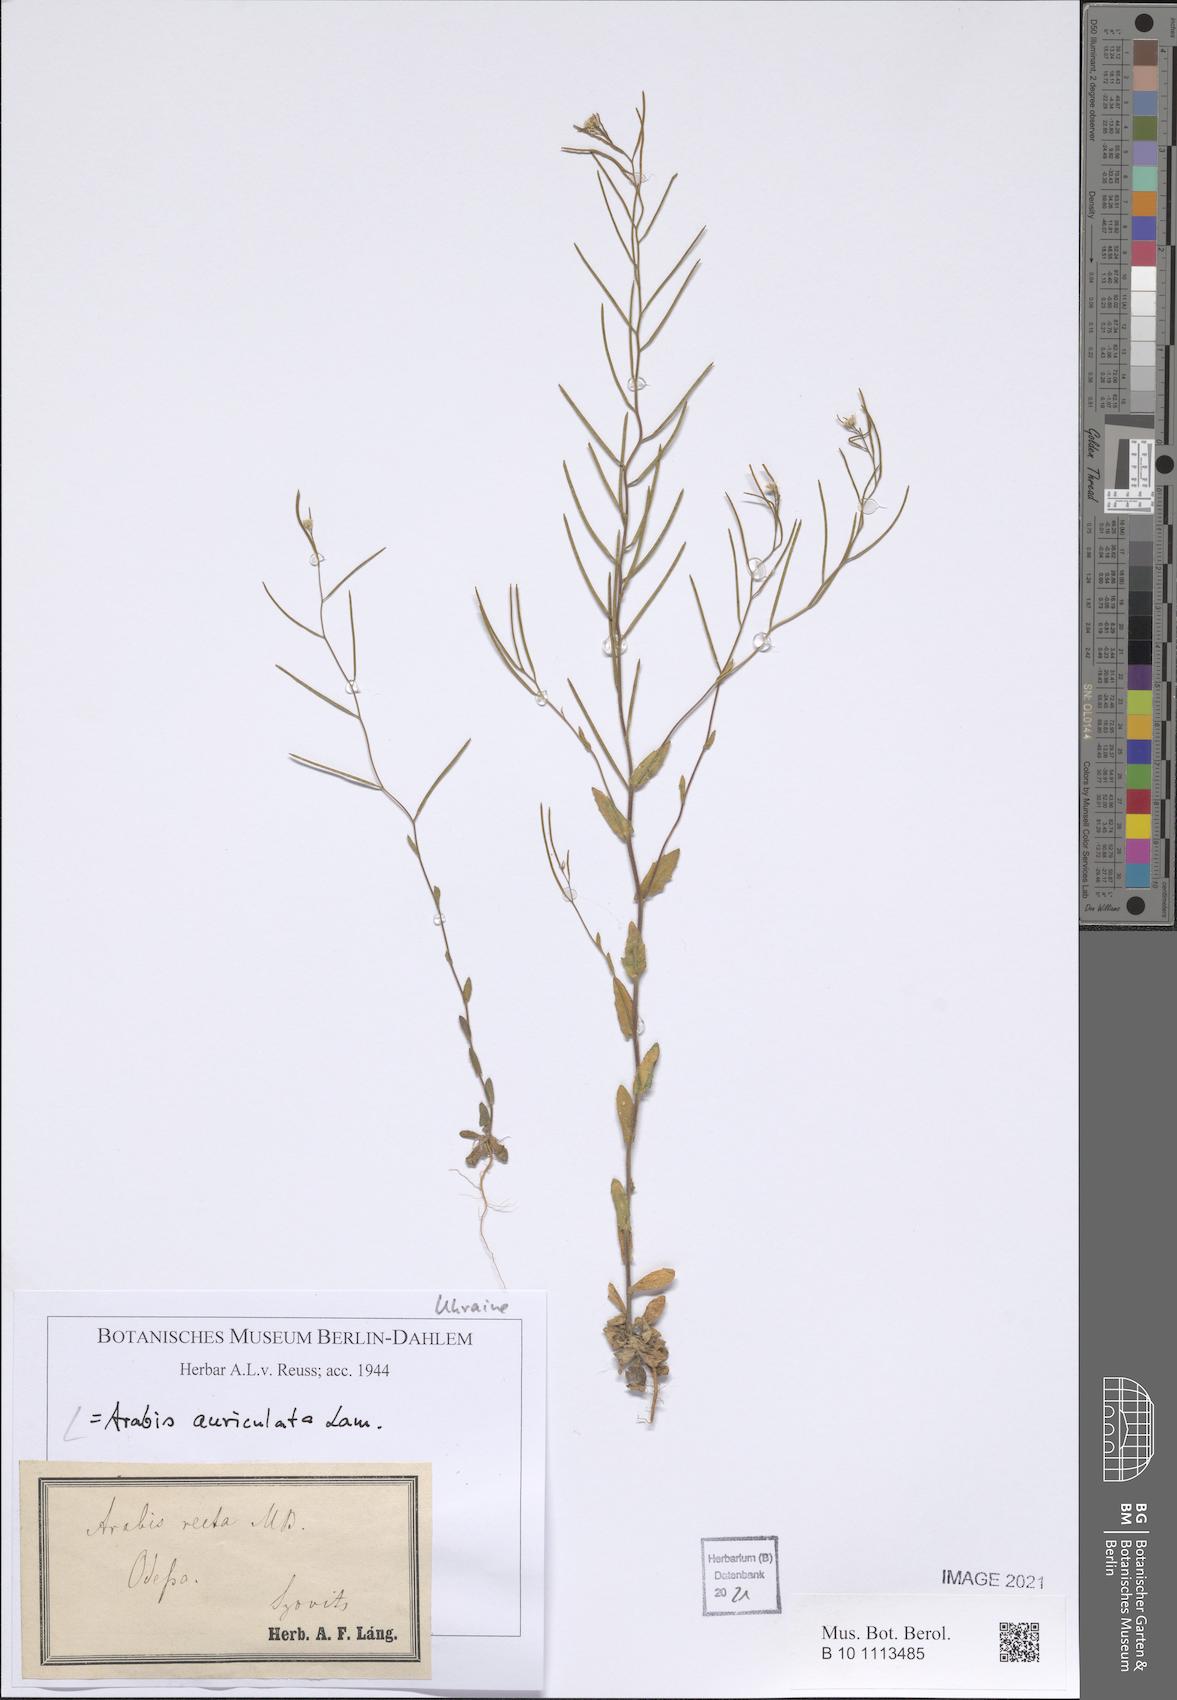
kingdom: Plantae
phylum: Tracheophyta
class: Magnoliopsida
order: Brassicales
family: Brassicaceae
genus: Arabis
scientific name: Arabis auriculata
